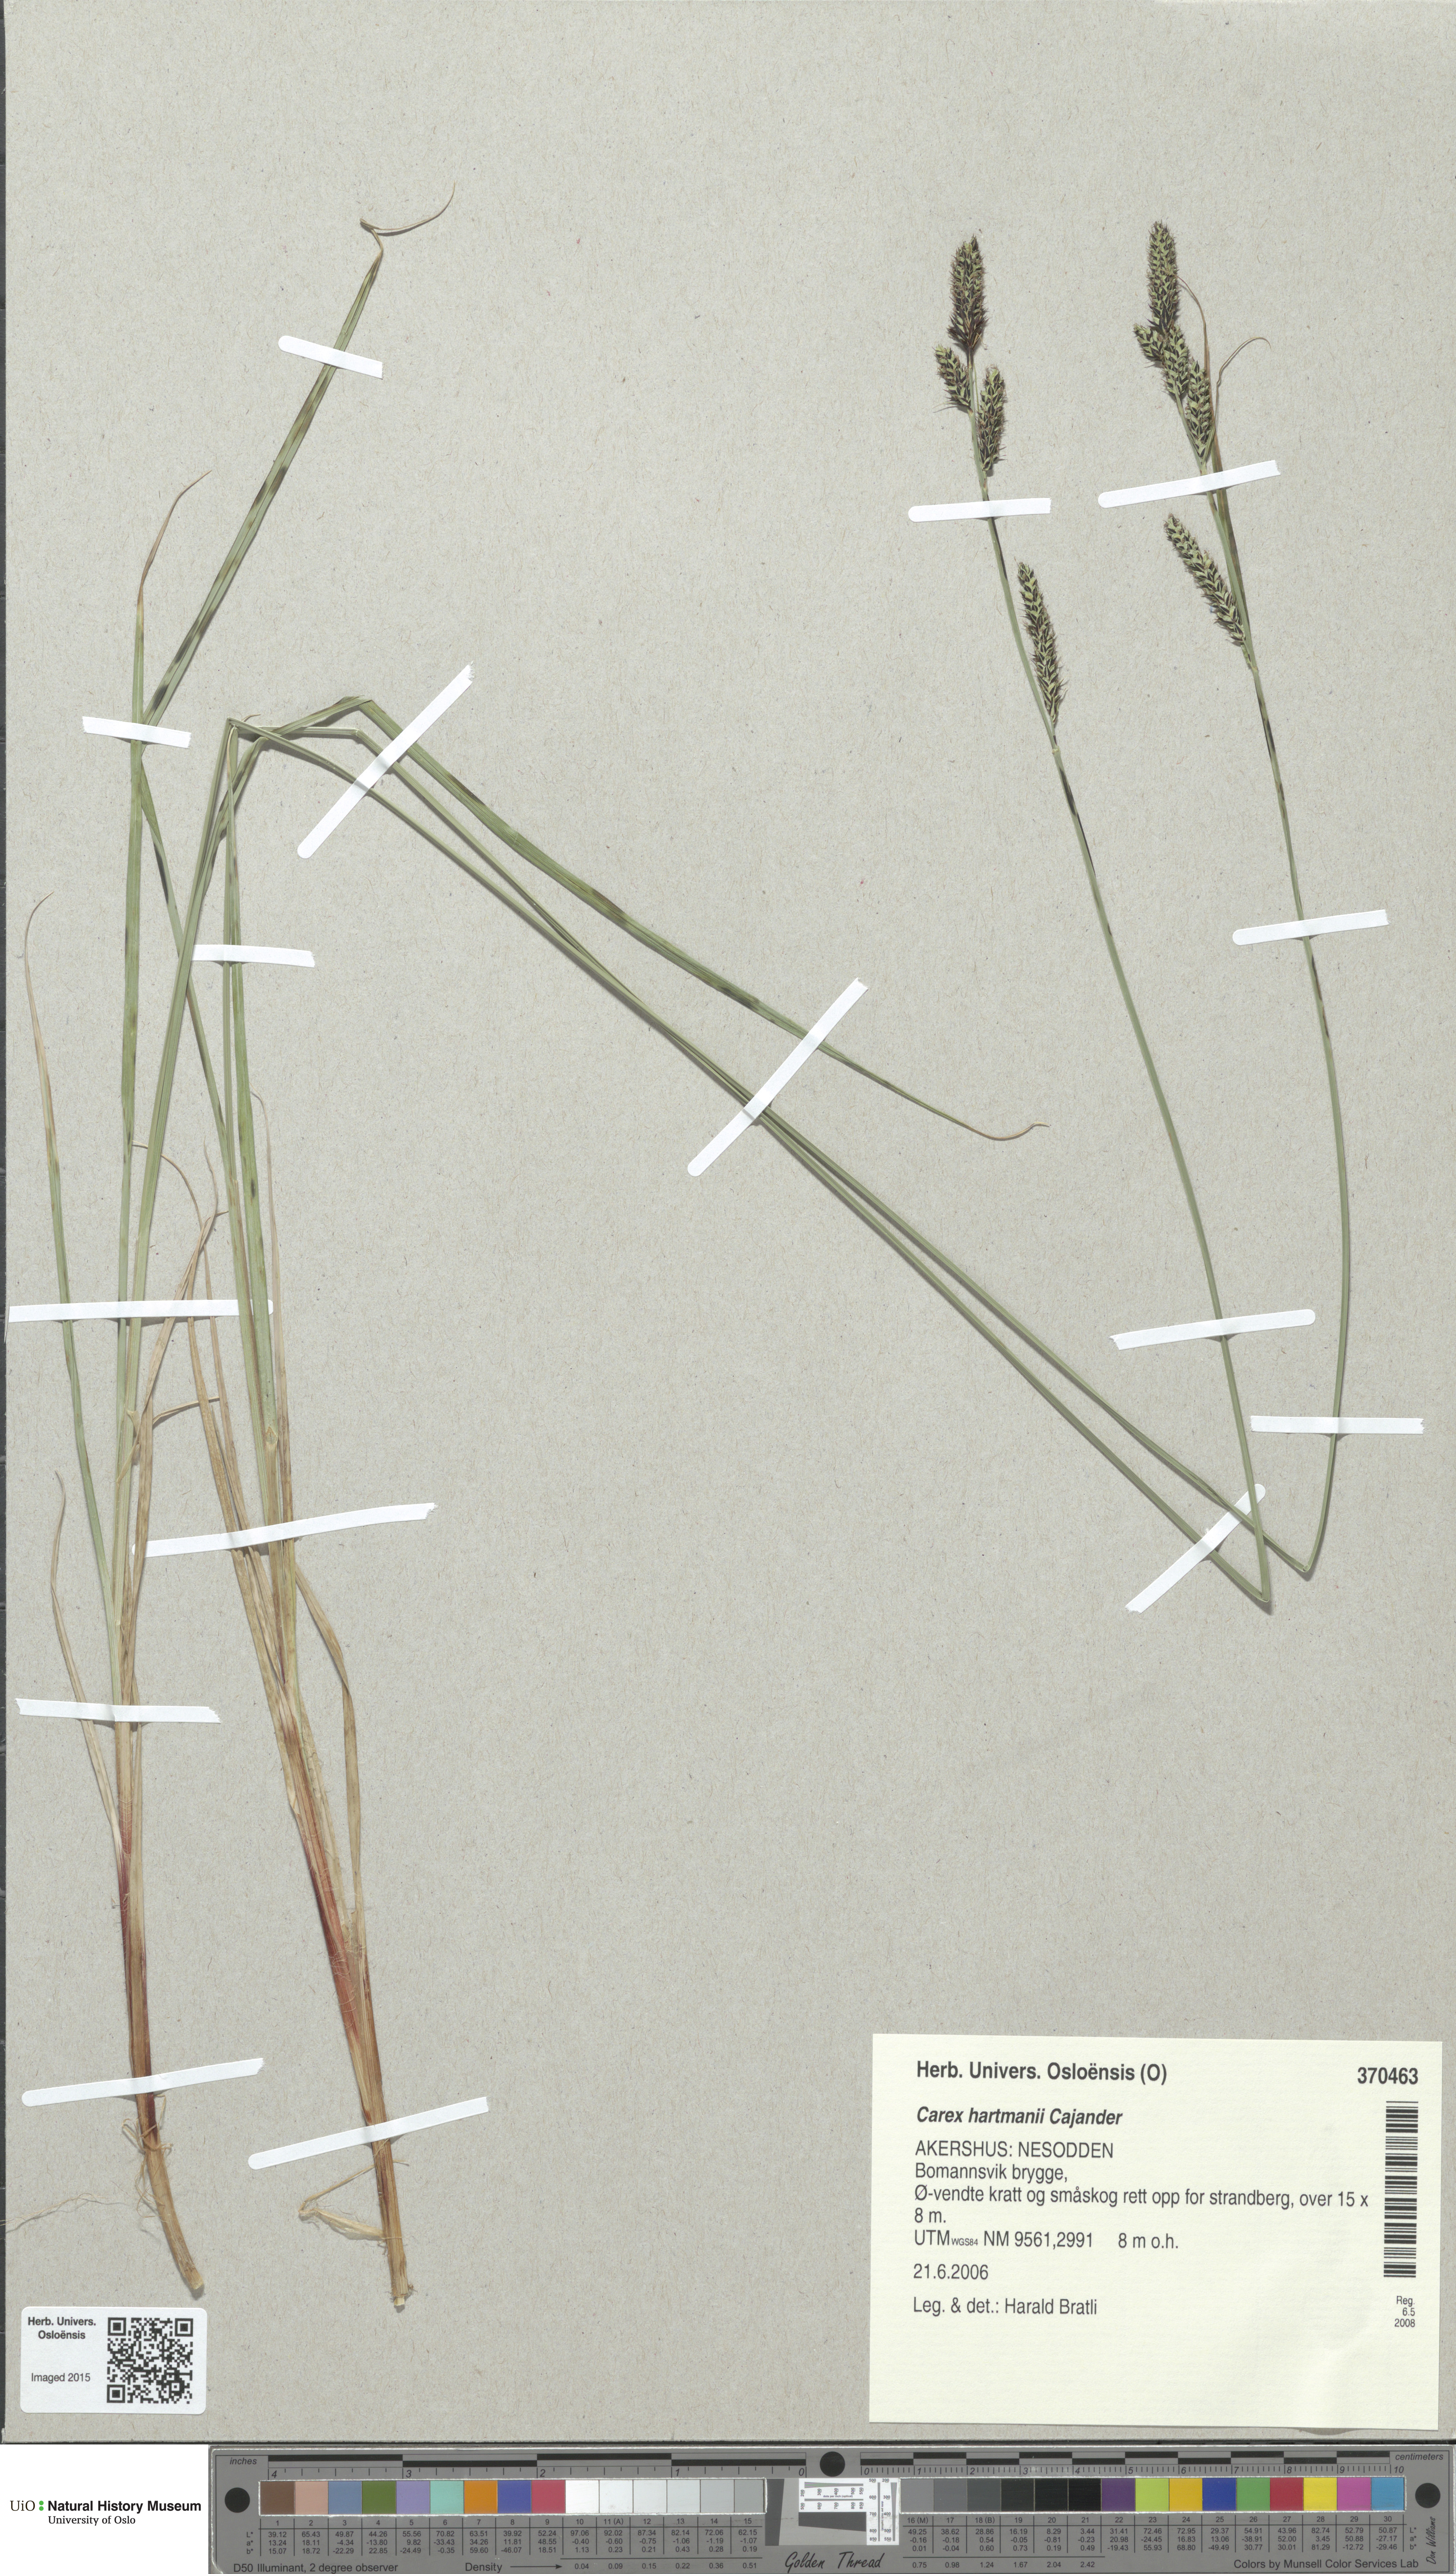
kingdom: Plantae
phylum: Tracheophyta
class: Liliopsida
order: Poales
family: Cyperaceae
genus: Carex
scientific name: Carex hartmaniorum
